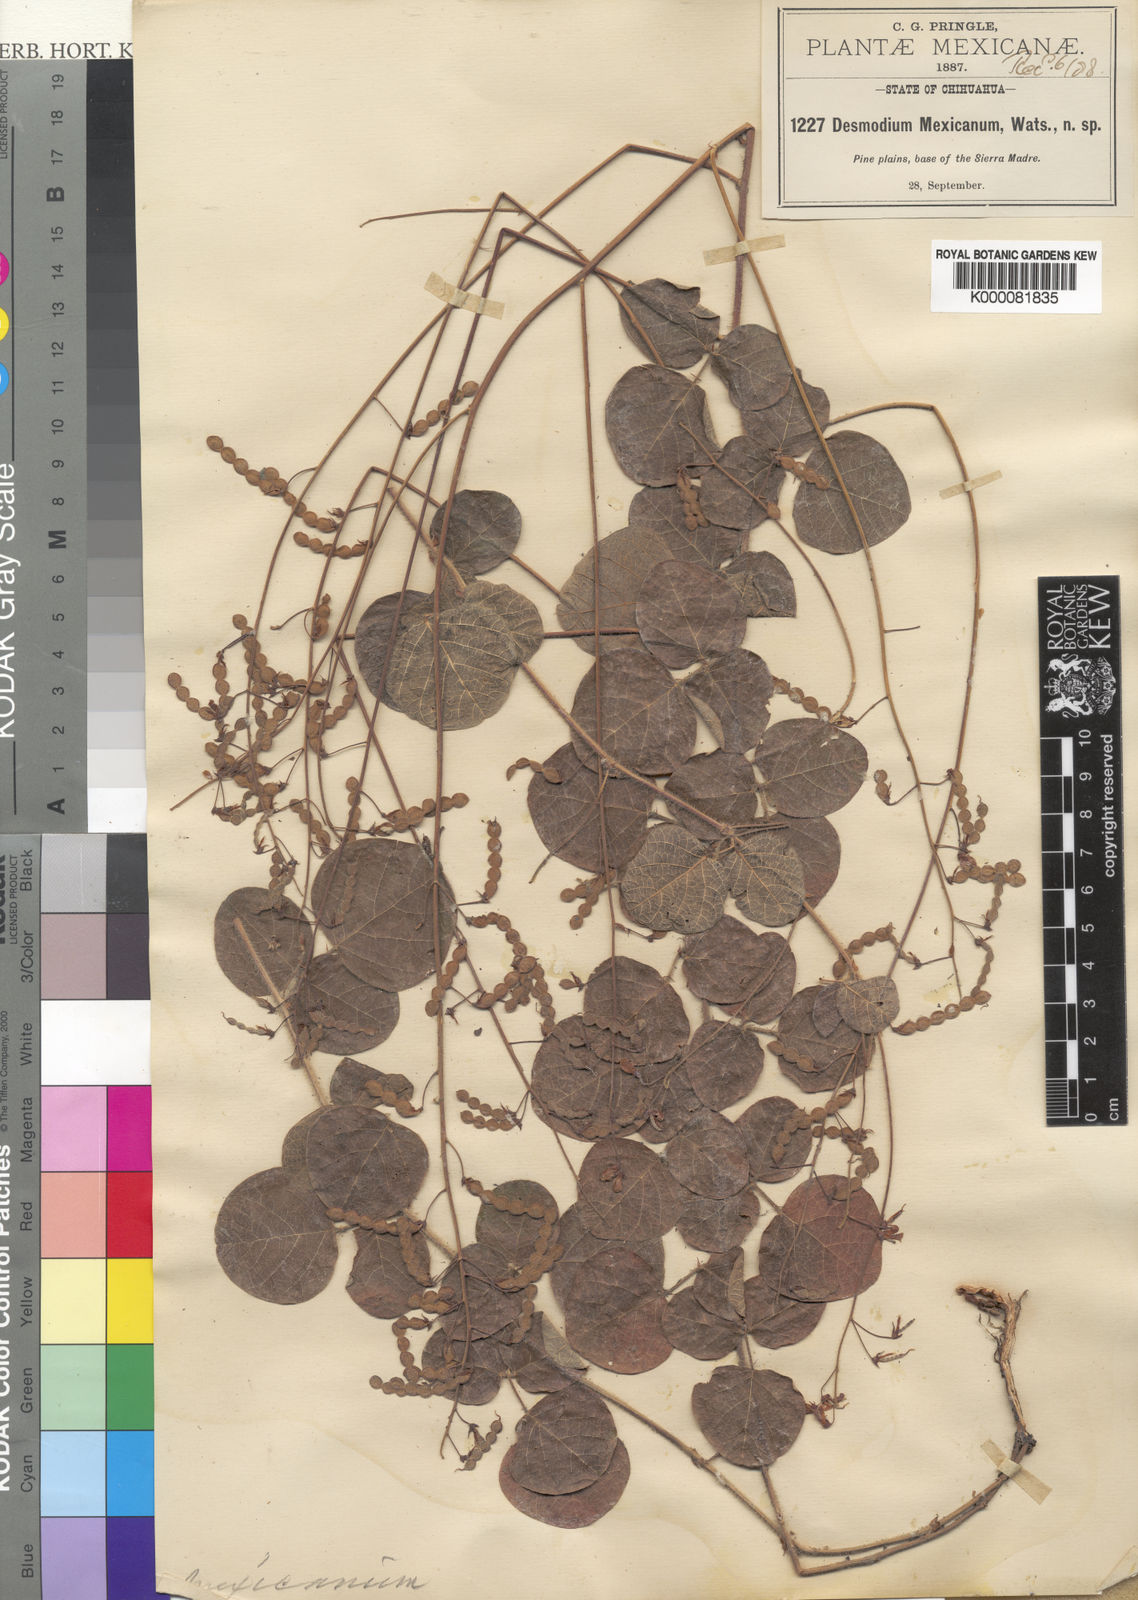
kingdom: Plantae
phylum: Tracheophyta
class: Magnoliopsida
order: Fabales
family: Fabaceae
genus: Desmodium
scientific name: Desmodium molliculum
